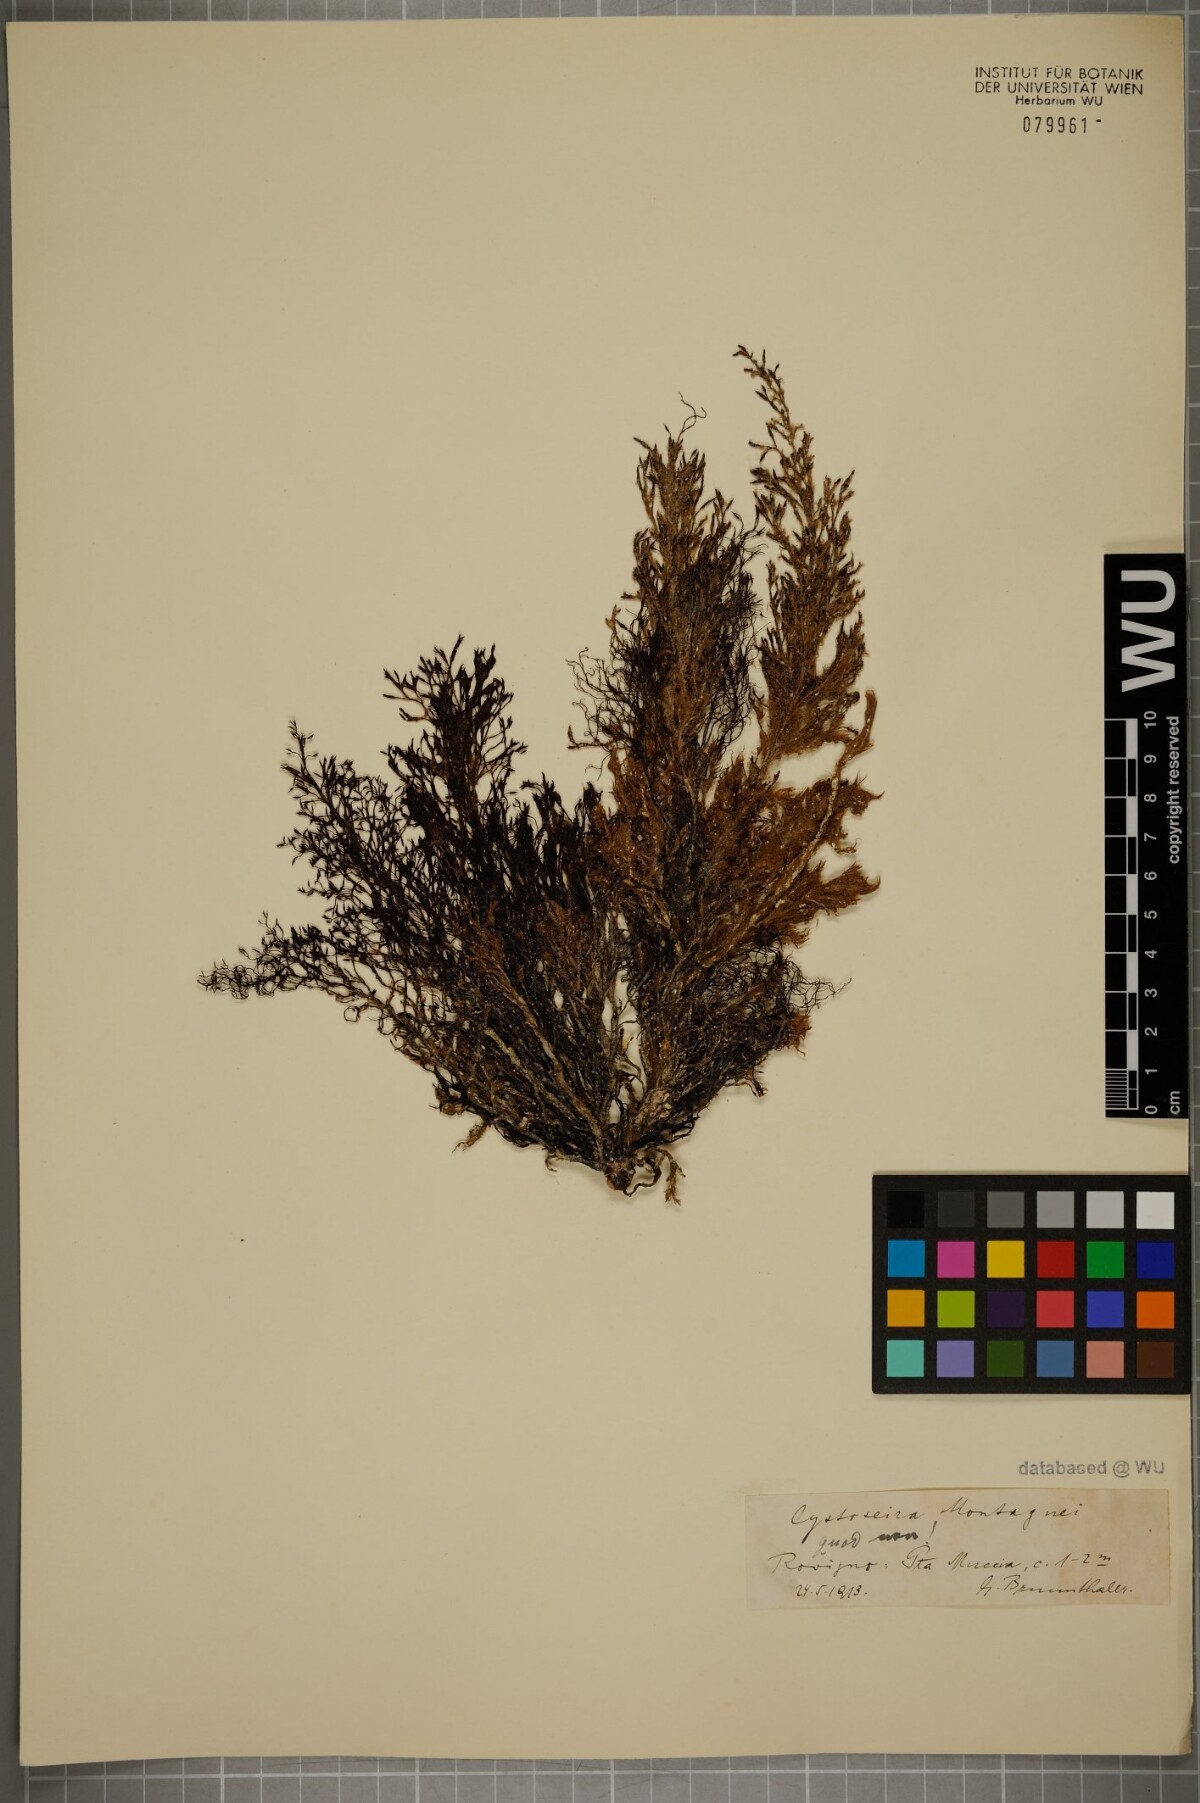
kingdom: Chromista
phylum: Ochrophyta
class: Phaeophyceae
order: Fucales
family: Sargassaceae
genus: Cystoseira
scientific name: Cystoseira Gongolaria montagnei
